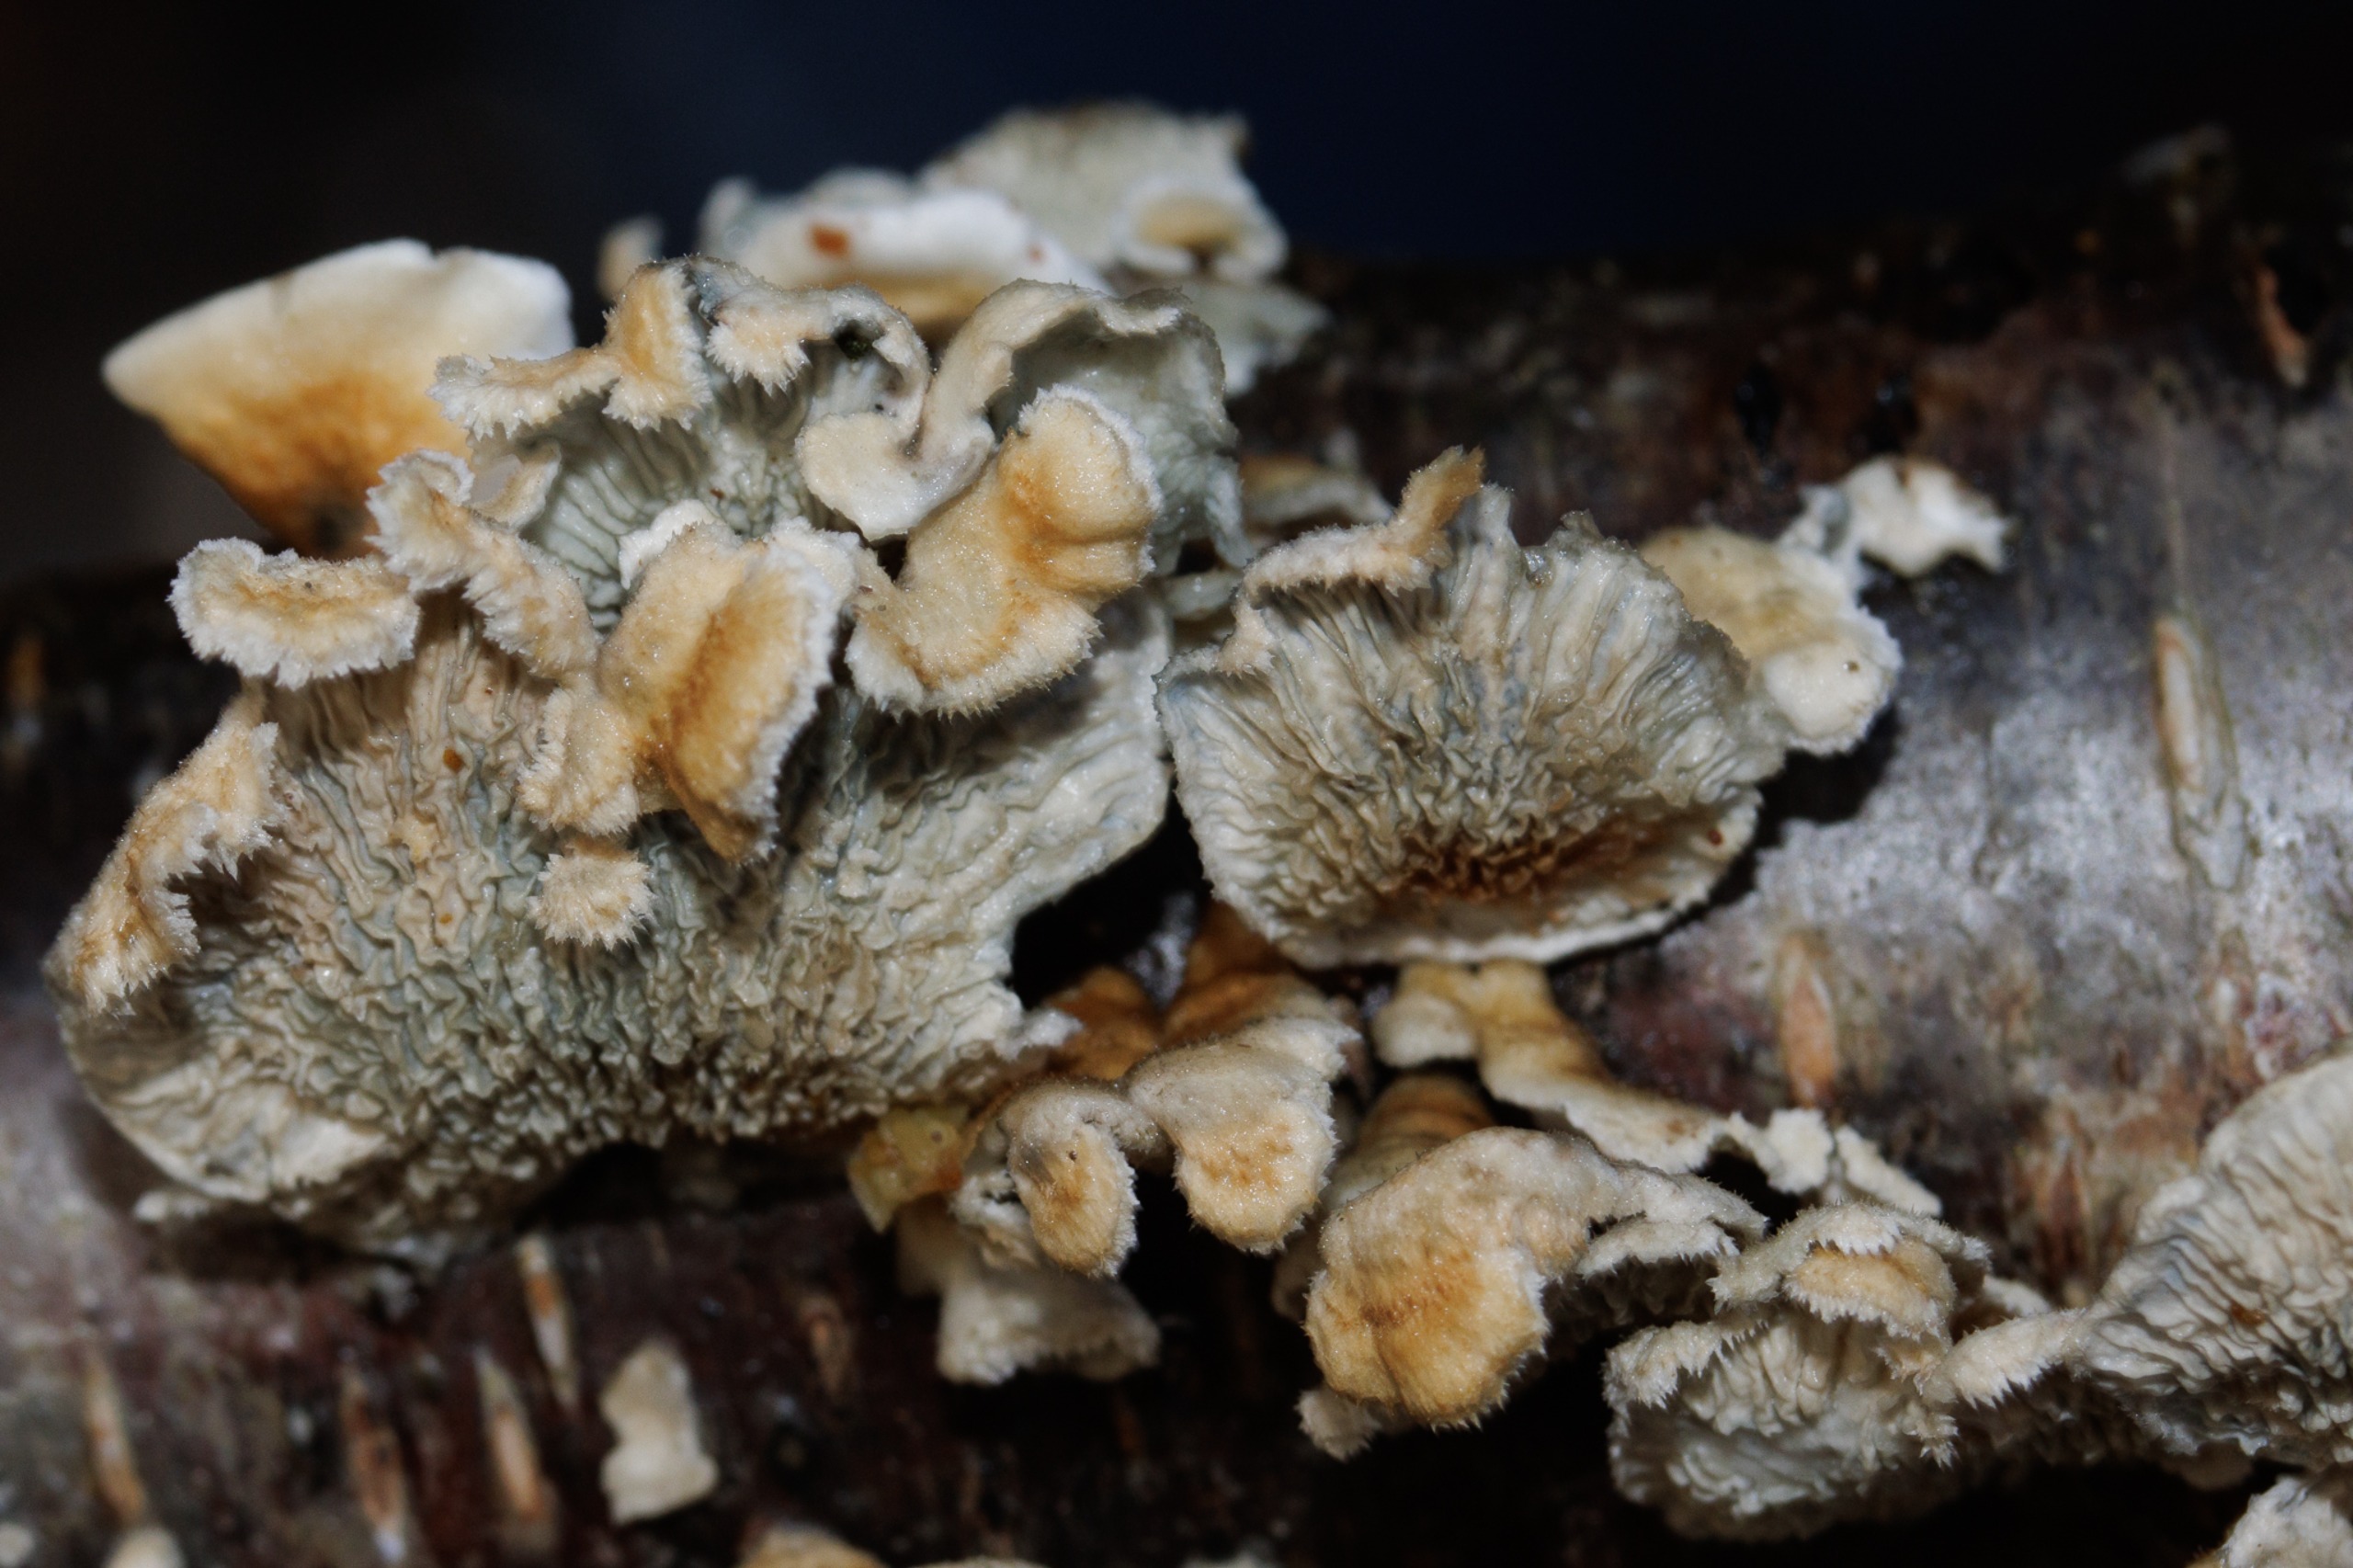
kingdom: Fungi
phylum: Basidiomycota
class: Agaricomycetes
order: Amylocorticiales
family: Amylocorticiaceae
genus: Plicaturopsis
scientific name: Plicaturopsis crispa
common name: Krusblad
